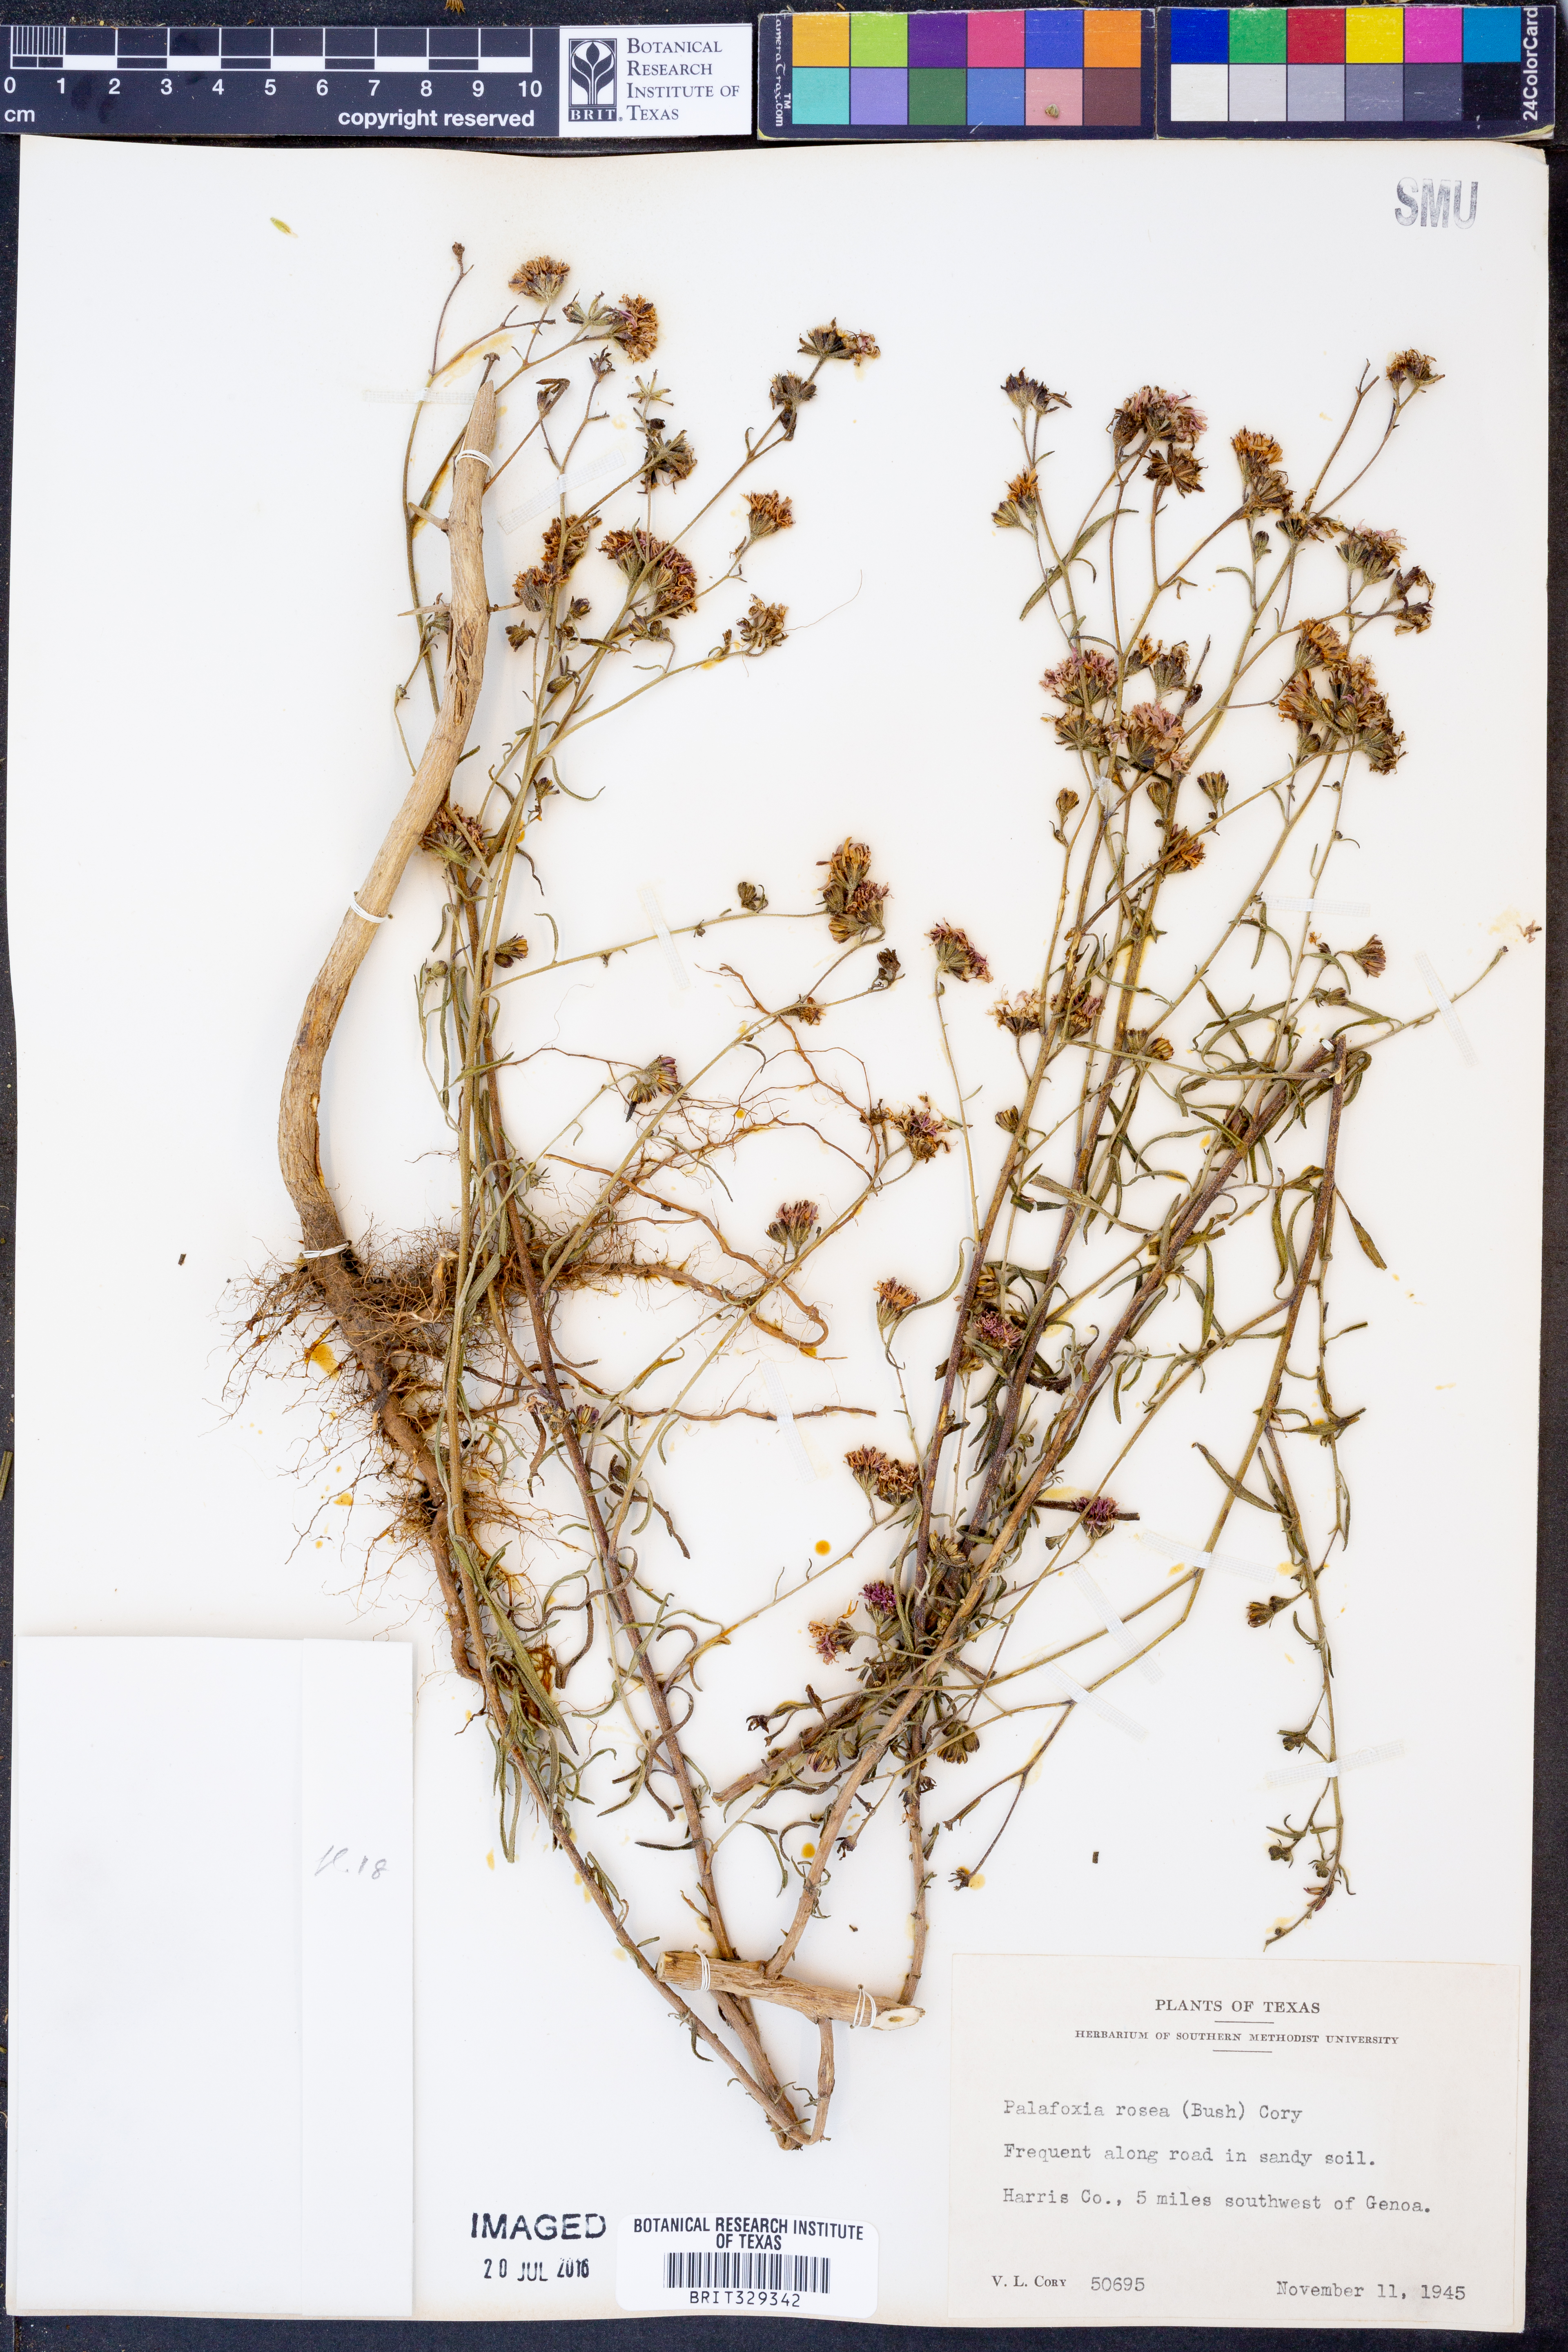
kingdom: Plantae
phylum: Tracheophyta
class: Magnoliopsida
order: Asterales
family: Asteraceae
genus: Palafoxia
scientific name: Palafoxia rosea
